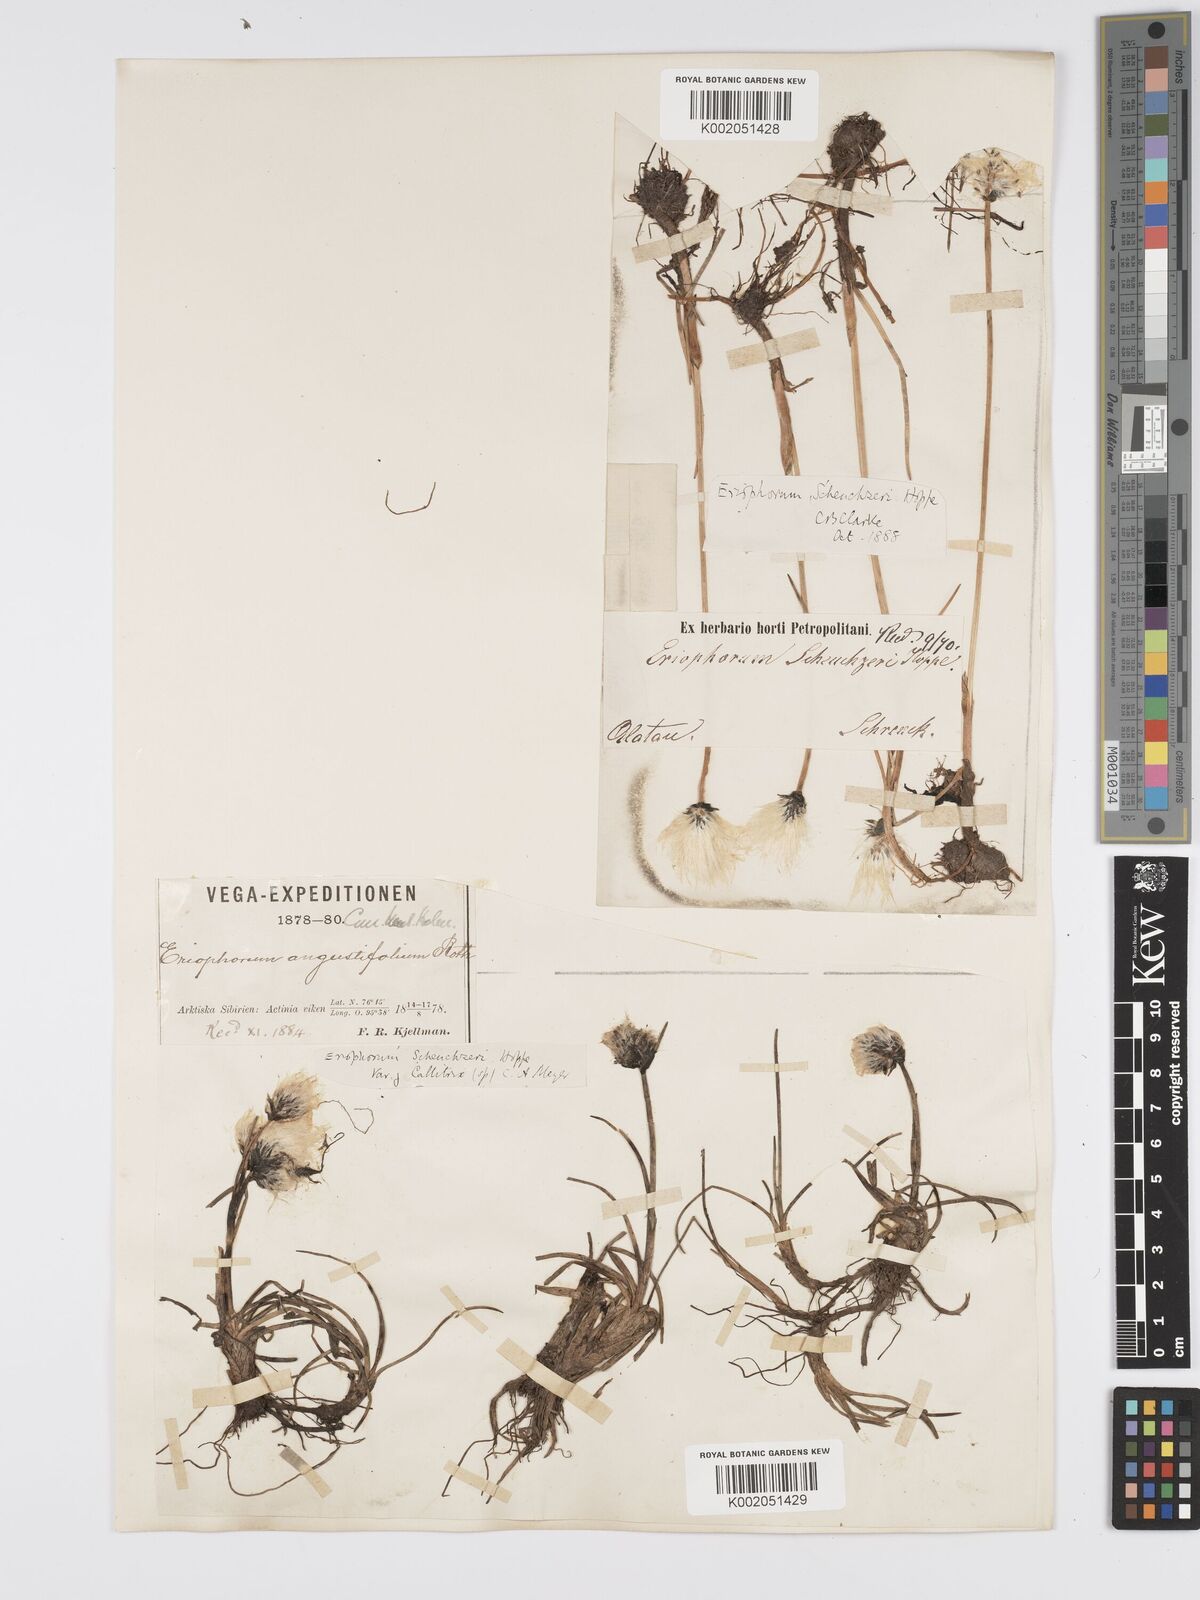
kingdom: Plantae
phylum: Tracheophyta
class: Liliopsida
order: Poales
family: Cyperaceae
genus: Eriophorum
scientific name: Eriophorum scheuchzeri
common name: Scheuchzer's cottongrass
